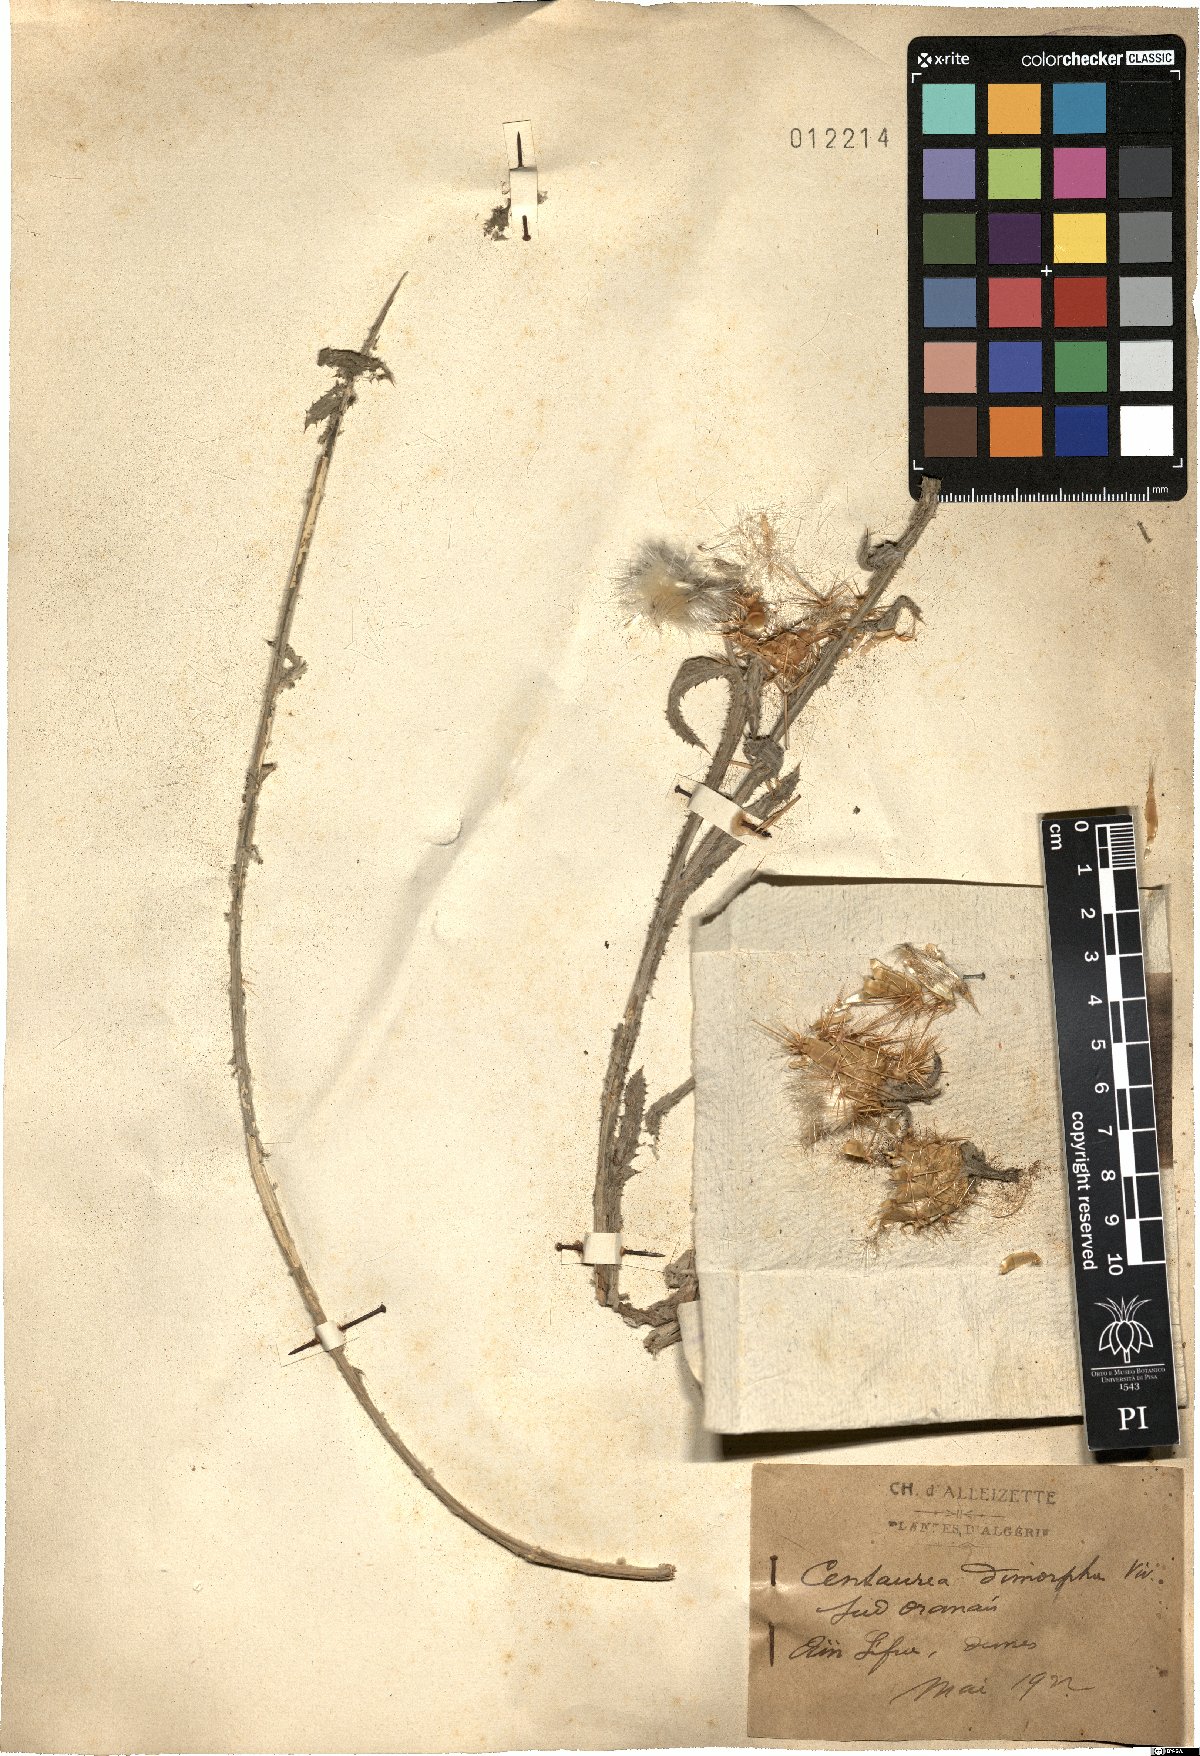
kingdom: Plantae
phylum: Tracheophyta
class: Magnoliopsida
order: Asterales
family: Asteraceae
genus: Centaurea
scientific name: Centaurea dimorpha
